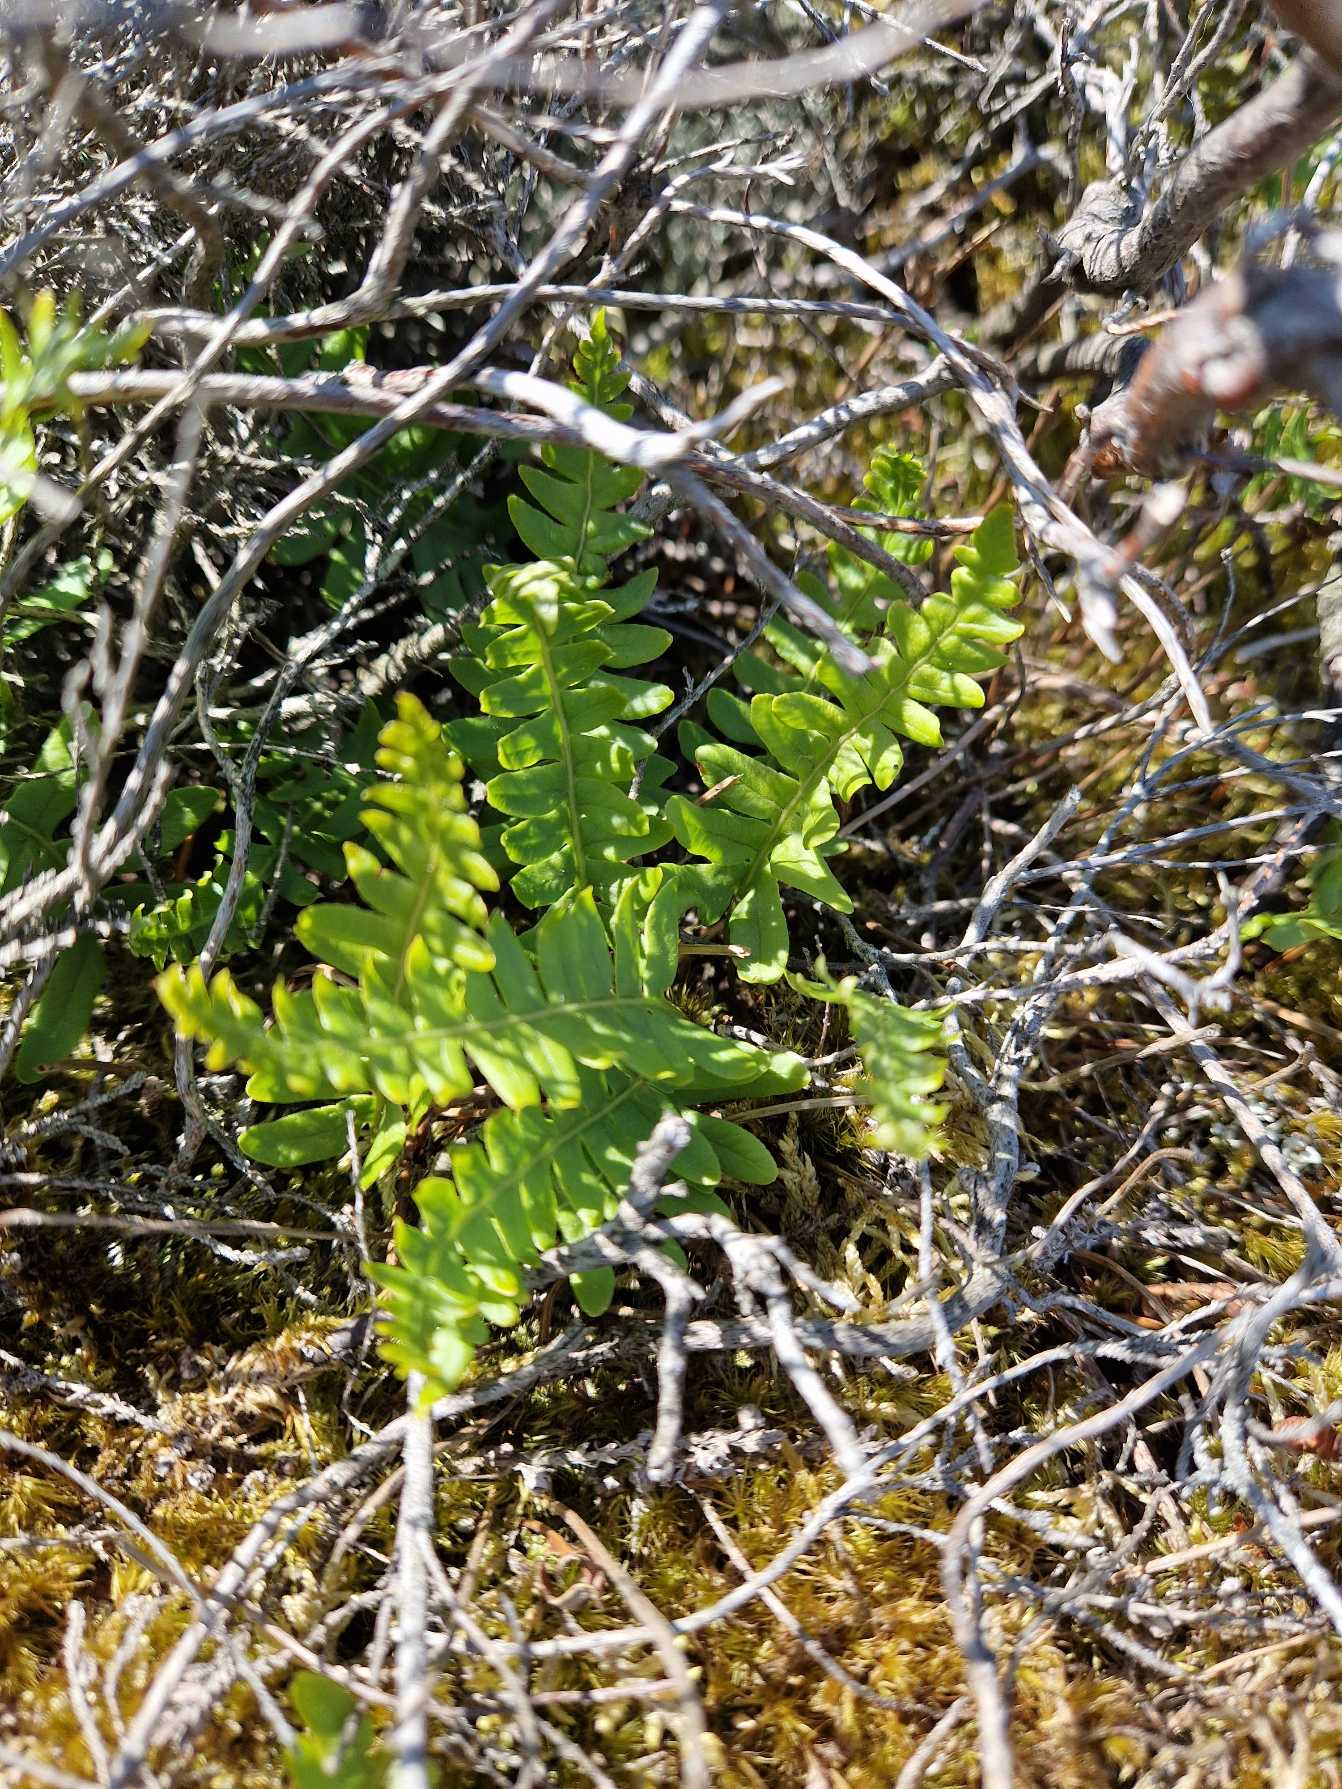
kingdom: Plantae
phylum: Tracheophyta
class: Polypodiopsida
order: Polypodiales
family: Polypodiaceae
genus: Polypodium
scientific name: Polypodium vulgare
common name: Almindelig engelsød
